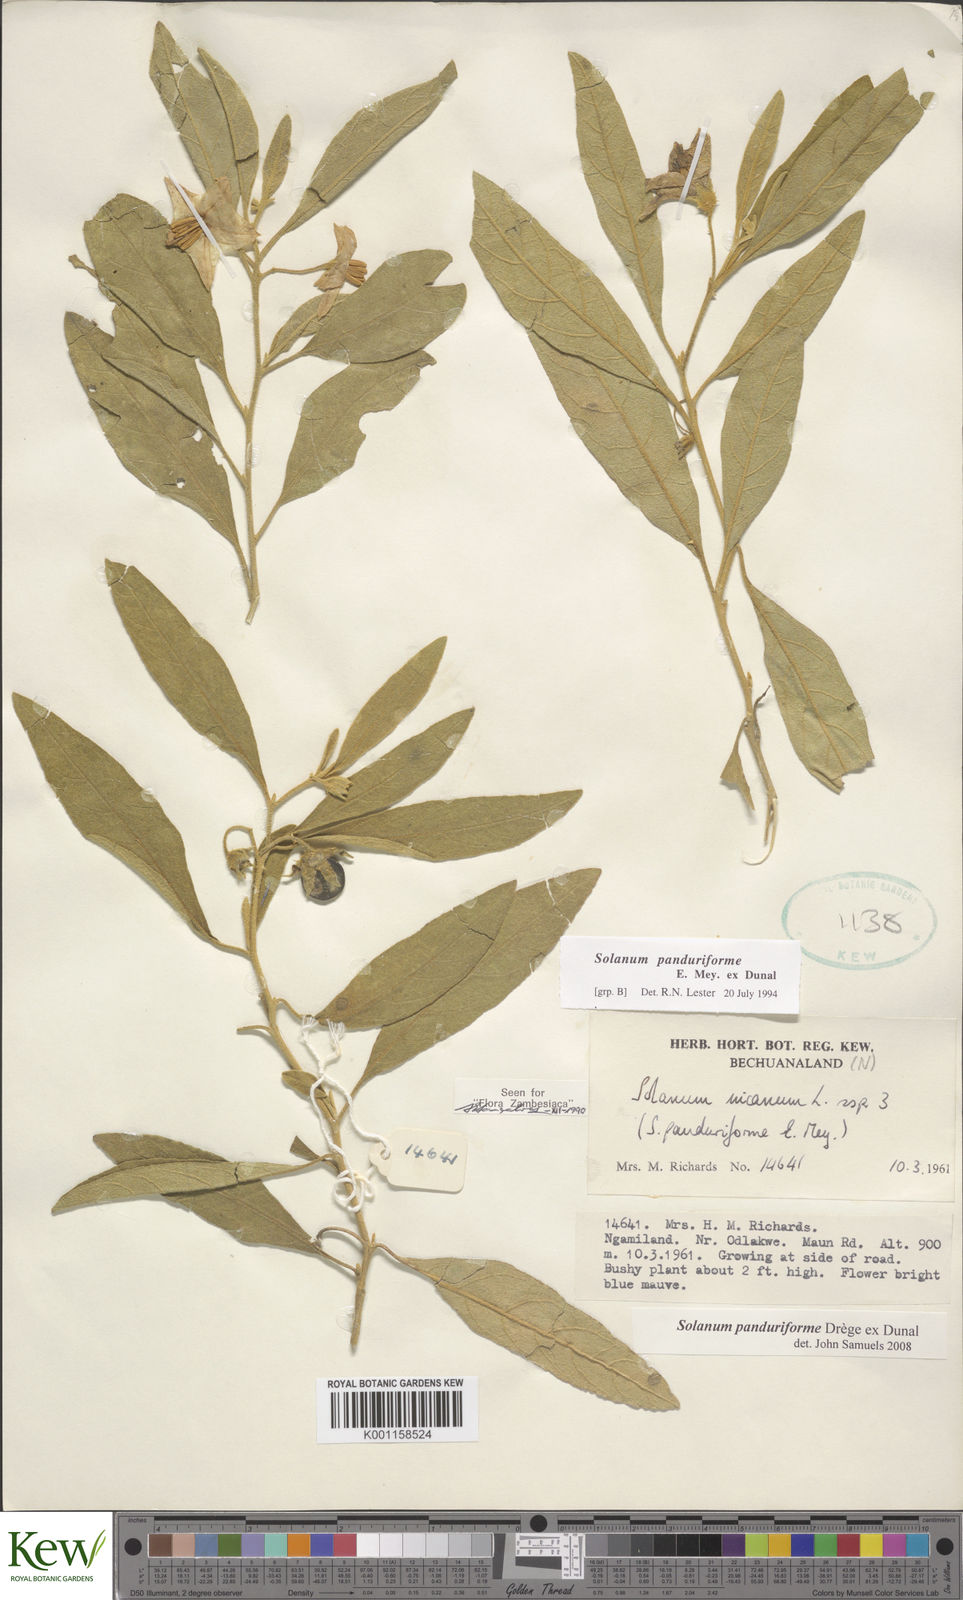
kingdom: Plantae
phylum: Tracheophyta
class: Magnoliopsida
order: Solanales
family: Solanaceae
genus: Solanum
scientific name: Solanum campylacanthum
